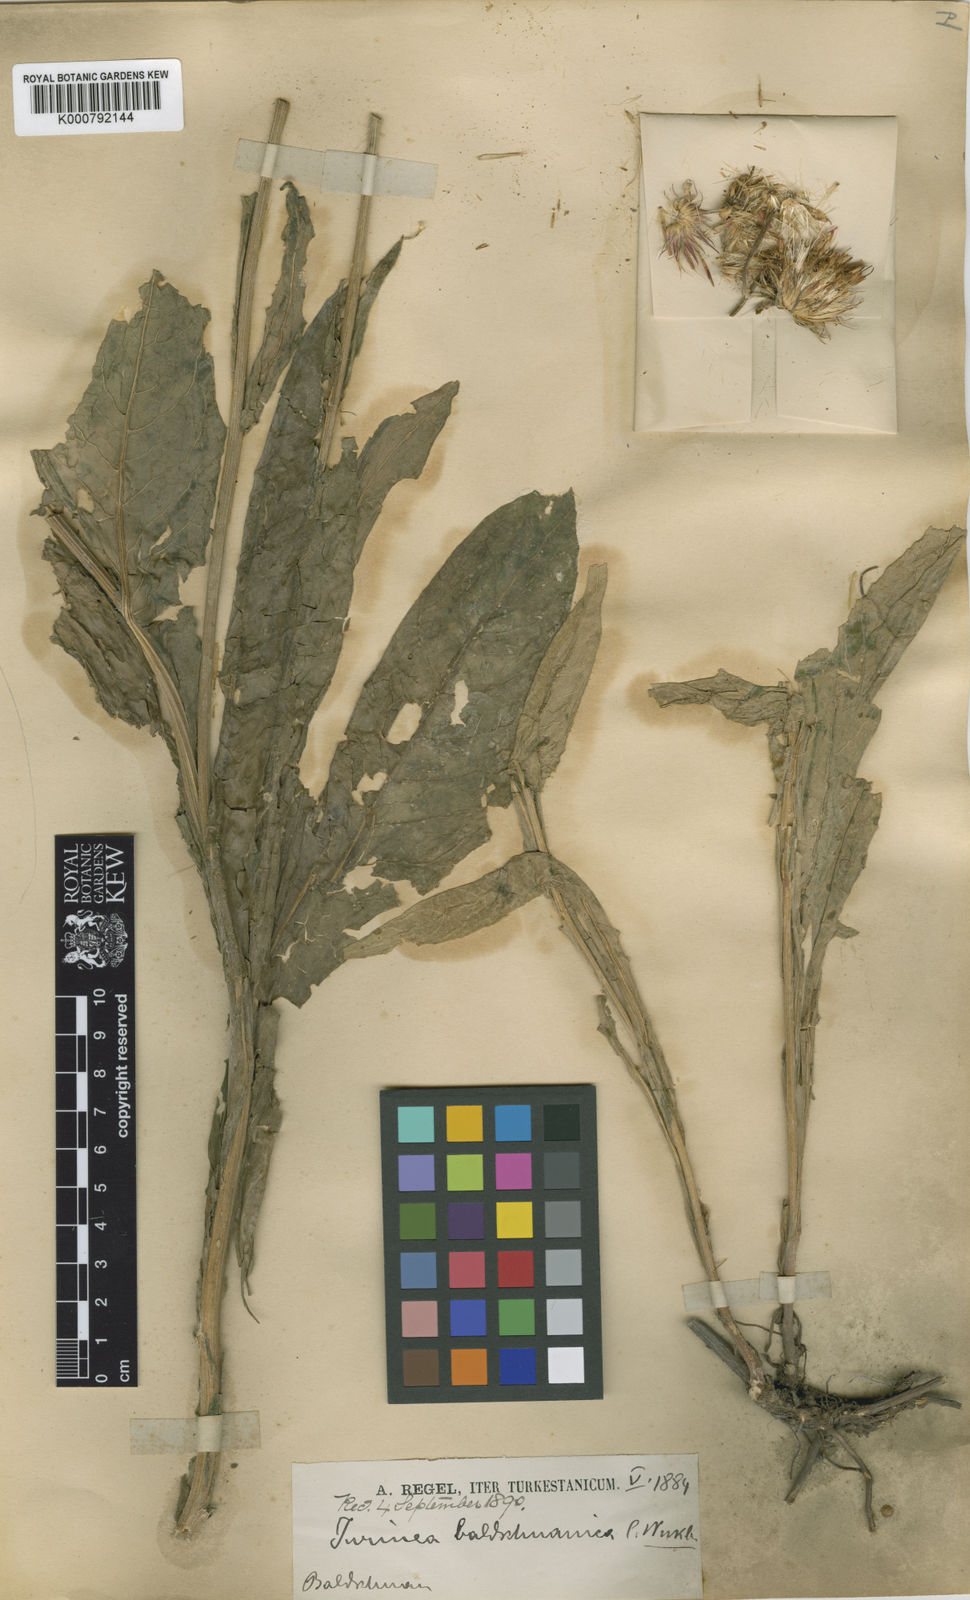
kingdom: Plantae
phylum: Tracheophyta
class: Magnoliopsida
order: Asterales
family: Asteraceae
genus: Jurinea
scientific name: Jurinea baldschuanica
